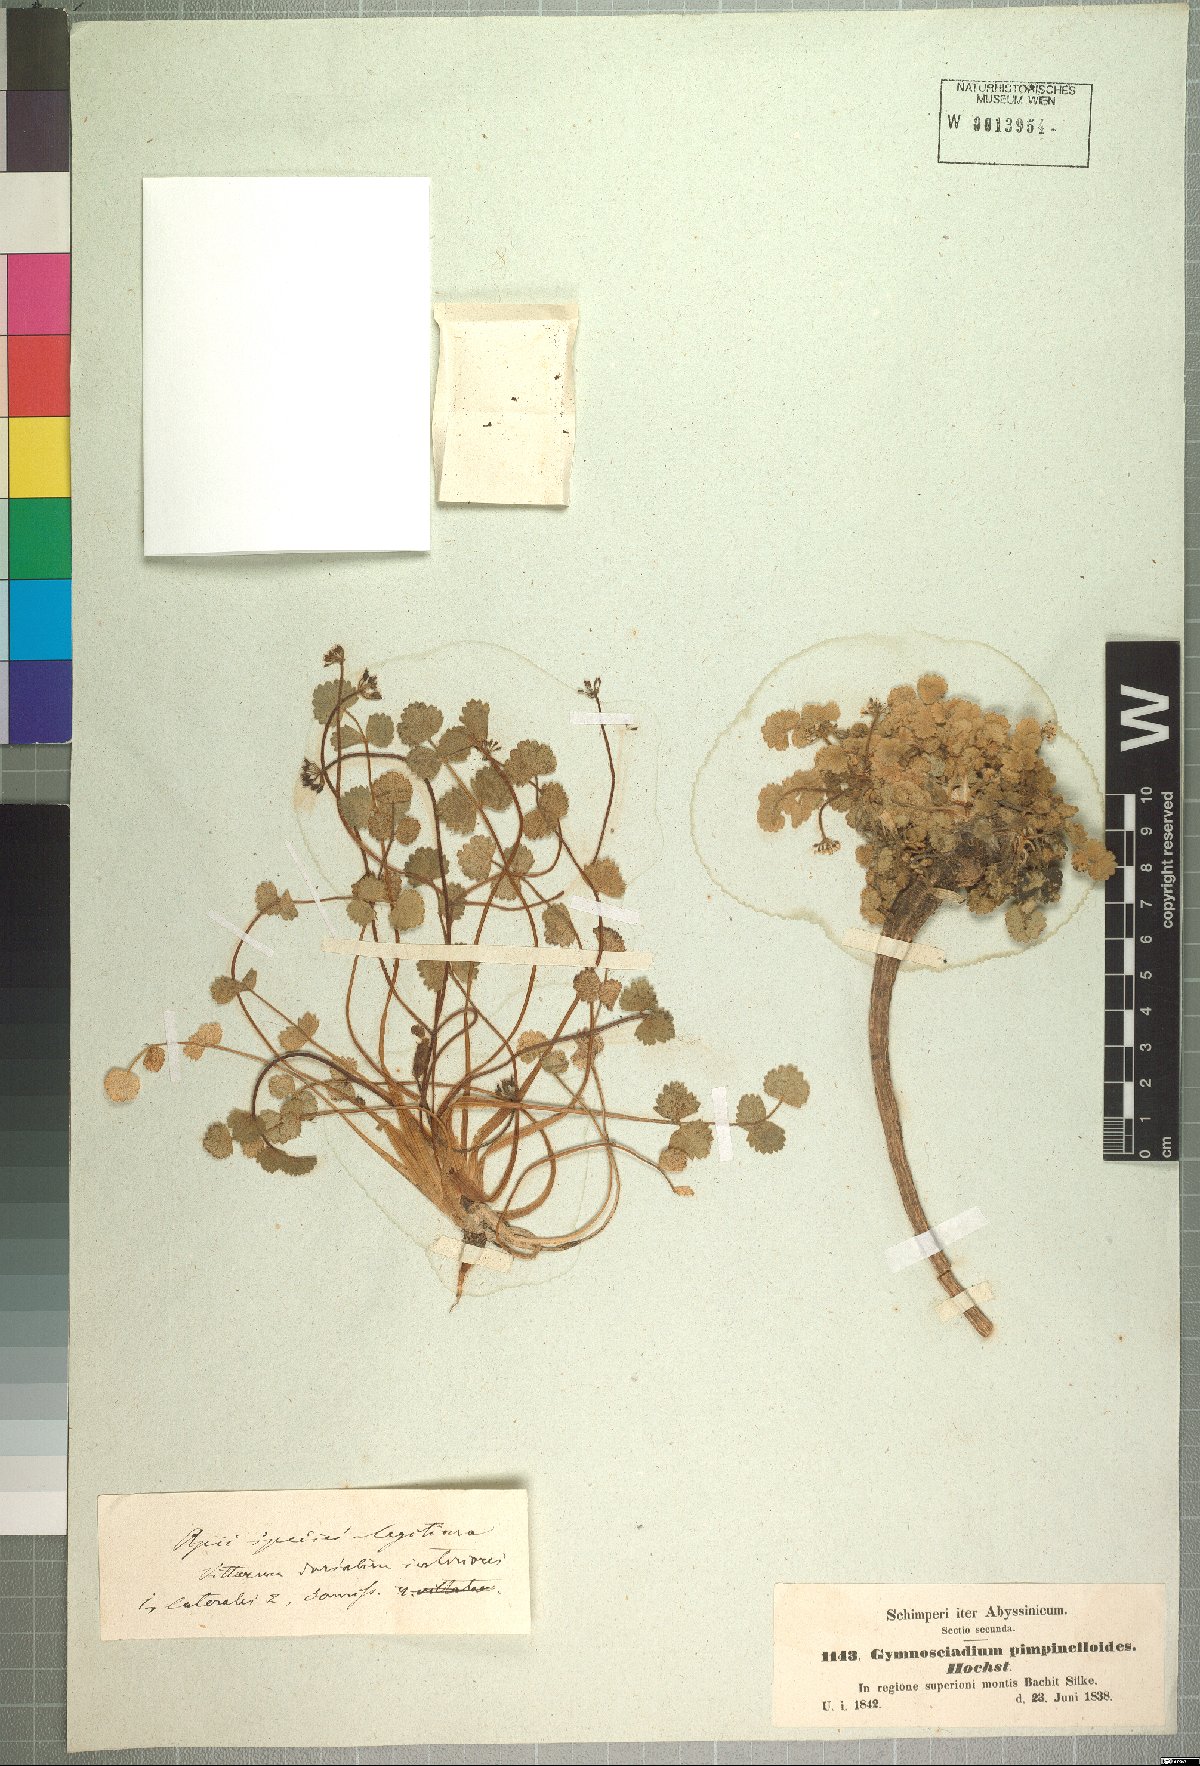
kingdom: Plantae
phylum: Tracheophyta
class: Magnoliopsida
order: Apiales
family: Apiaceae
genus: Pimpinella
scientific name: Pimpinella pimpinelloides
